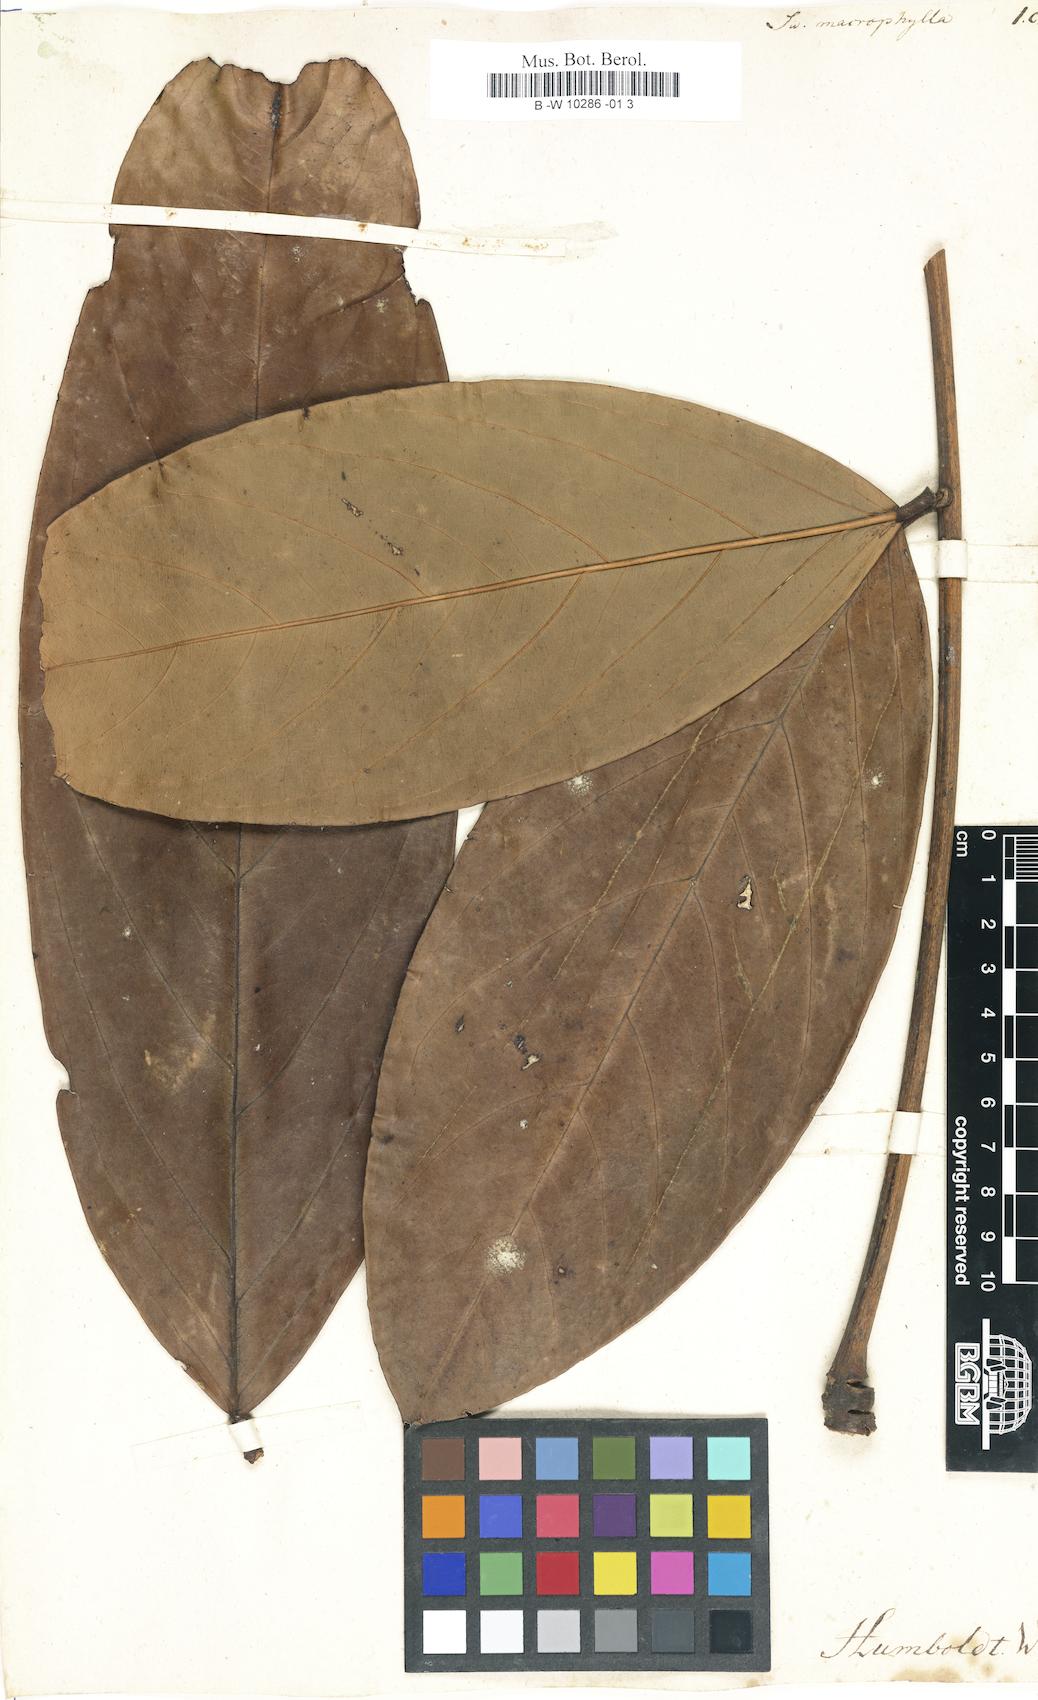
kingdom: Plantae
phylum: Tracheophyta
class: Magnoliopsida
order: Fabales
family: Fabaceae
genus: Swartzia
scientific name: Swartzia macrophylla
